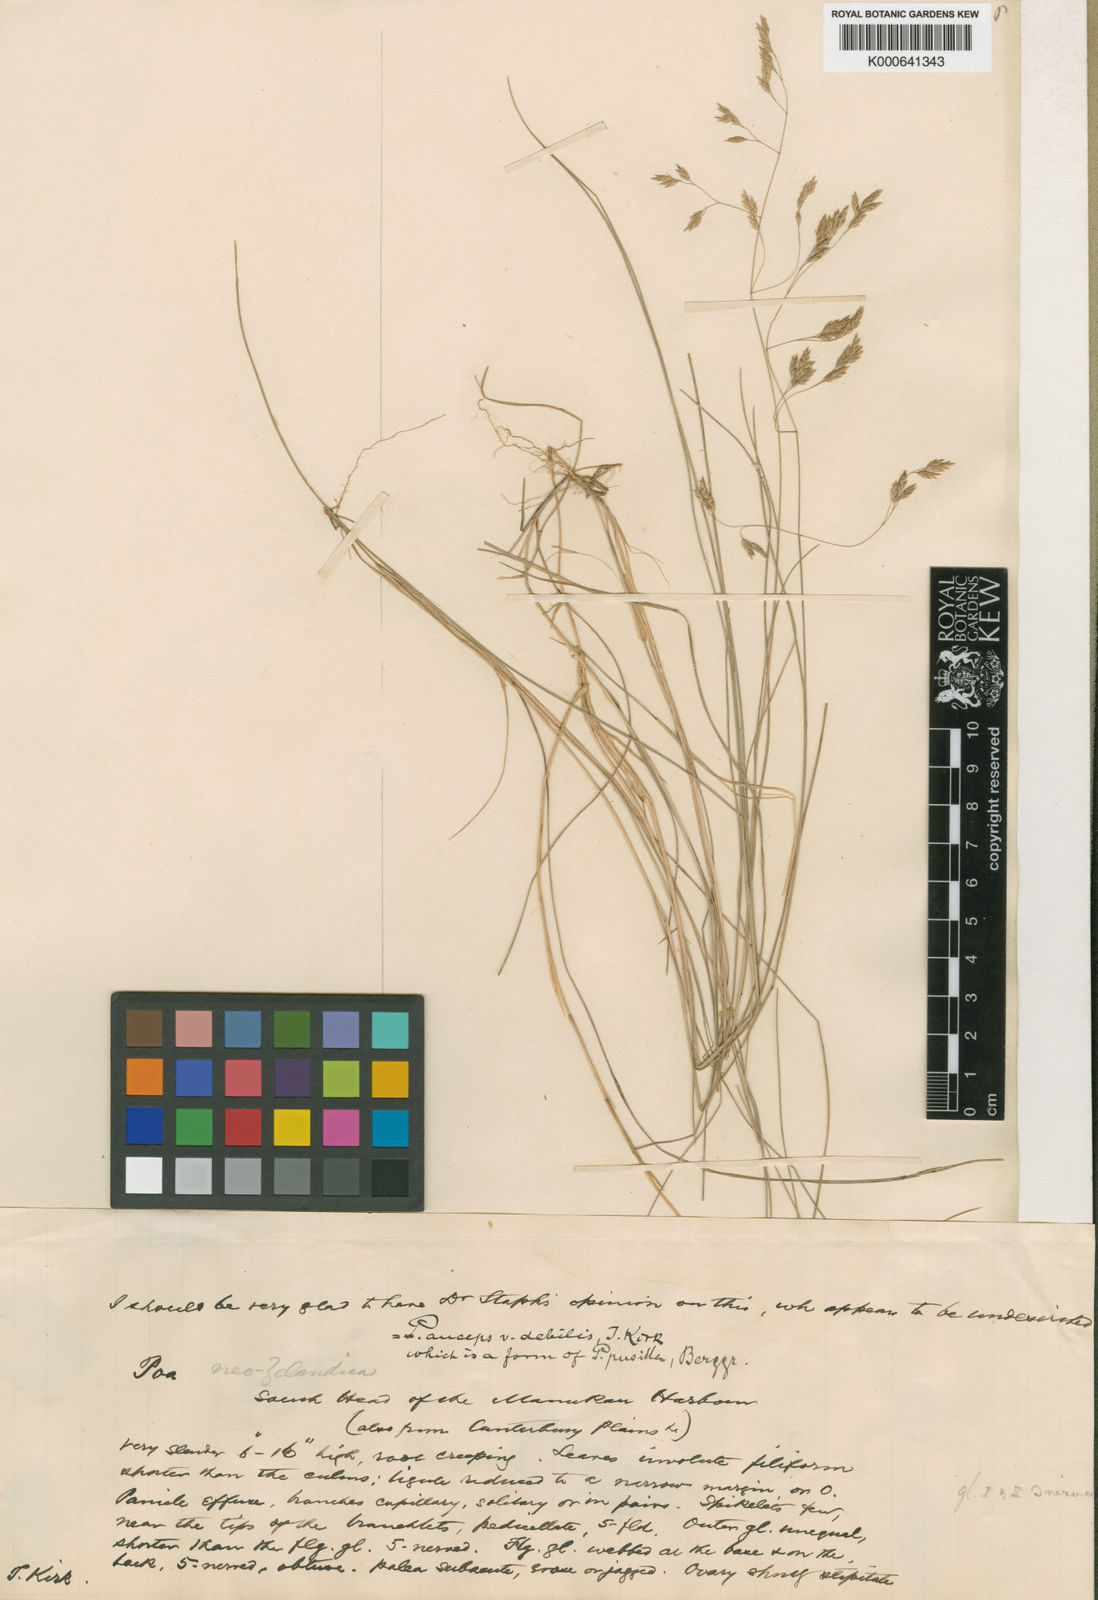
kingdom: Plantae
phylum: Tracheophyta
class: Liliopsida
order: Poales
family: Poaceae
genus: Poa
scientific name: Poa pusilla
